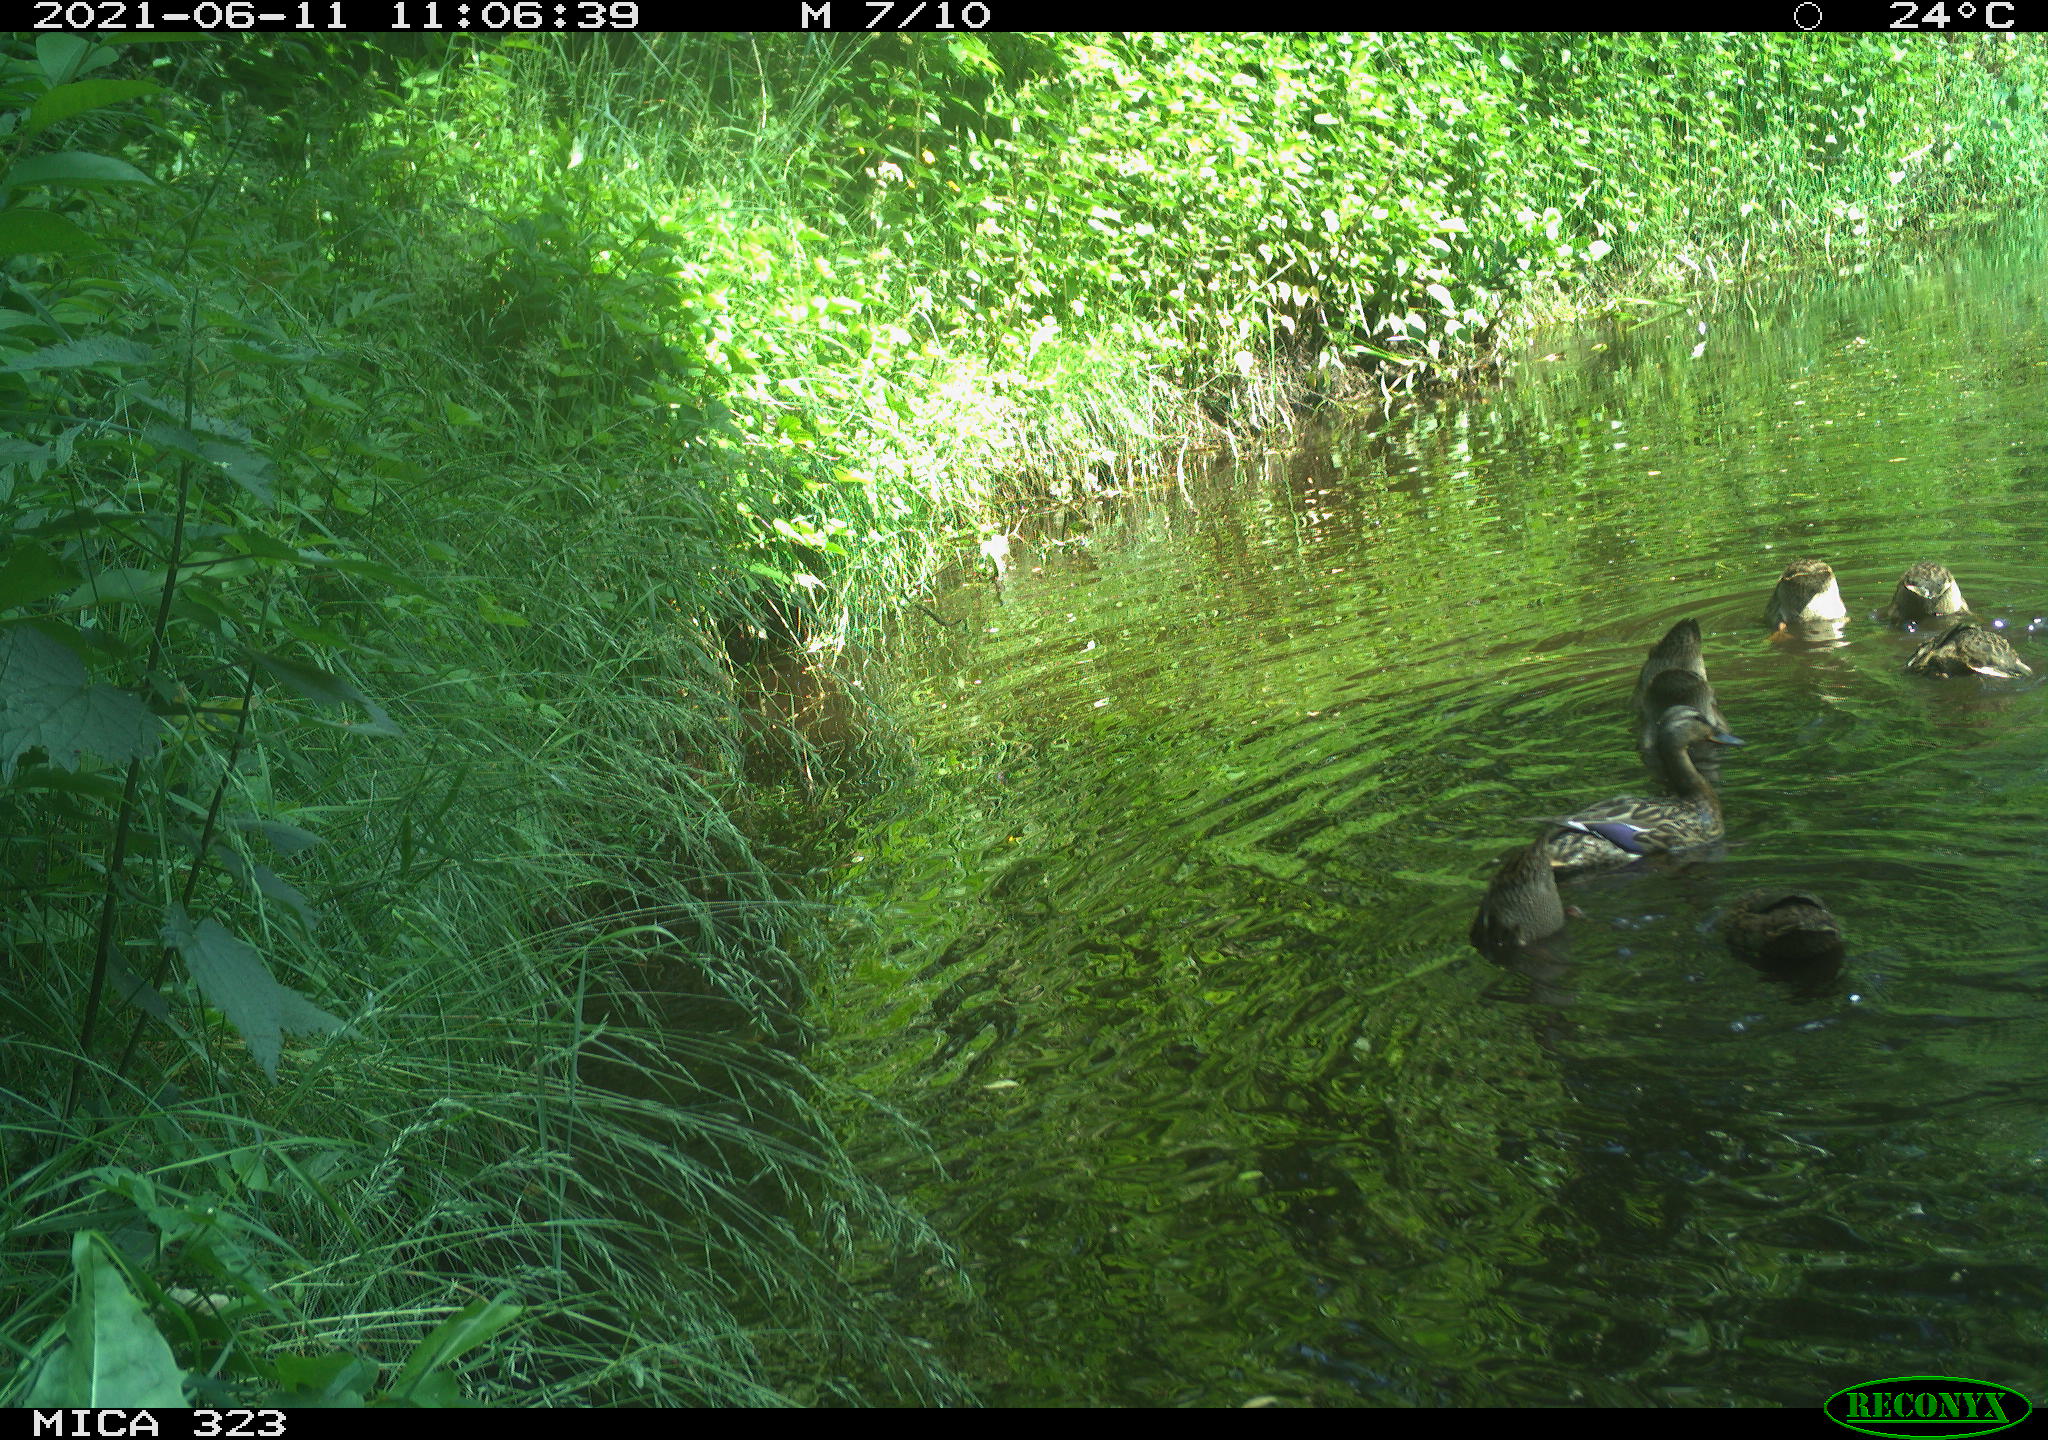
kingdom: Animalia
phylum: Chordata
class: Aves
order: Anseriformes
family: Anatidae
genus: Anas
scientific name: Anas platyrhynchos
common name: Mallard
